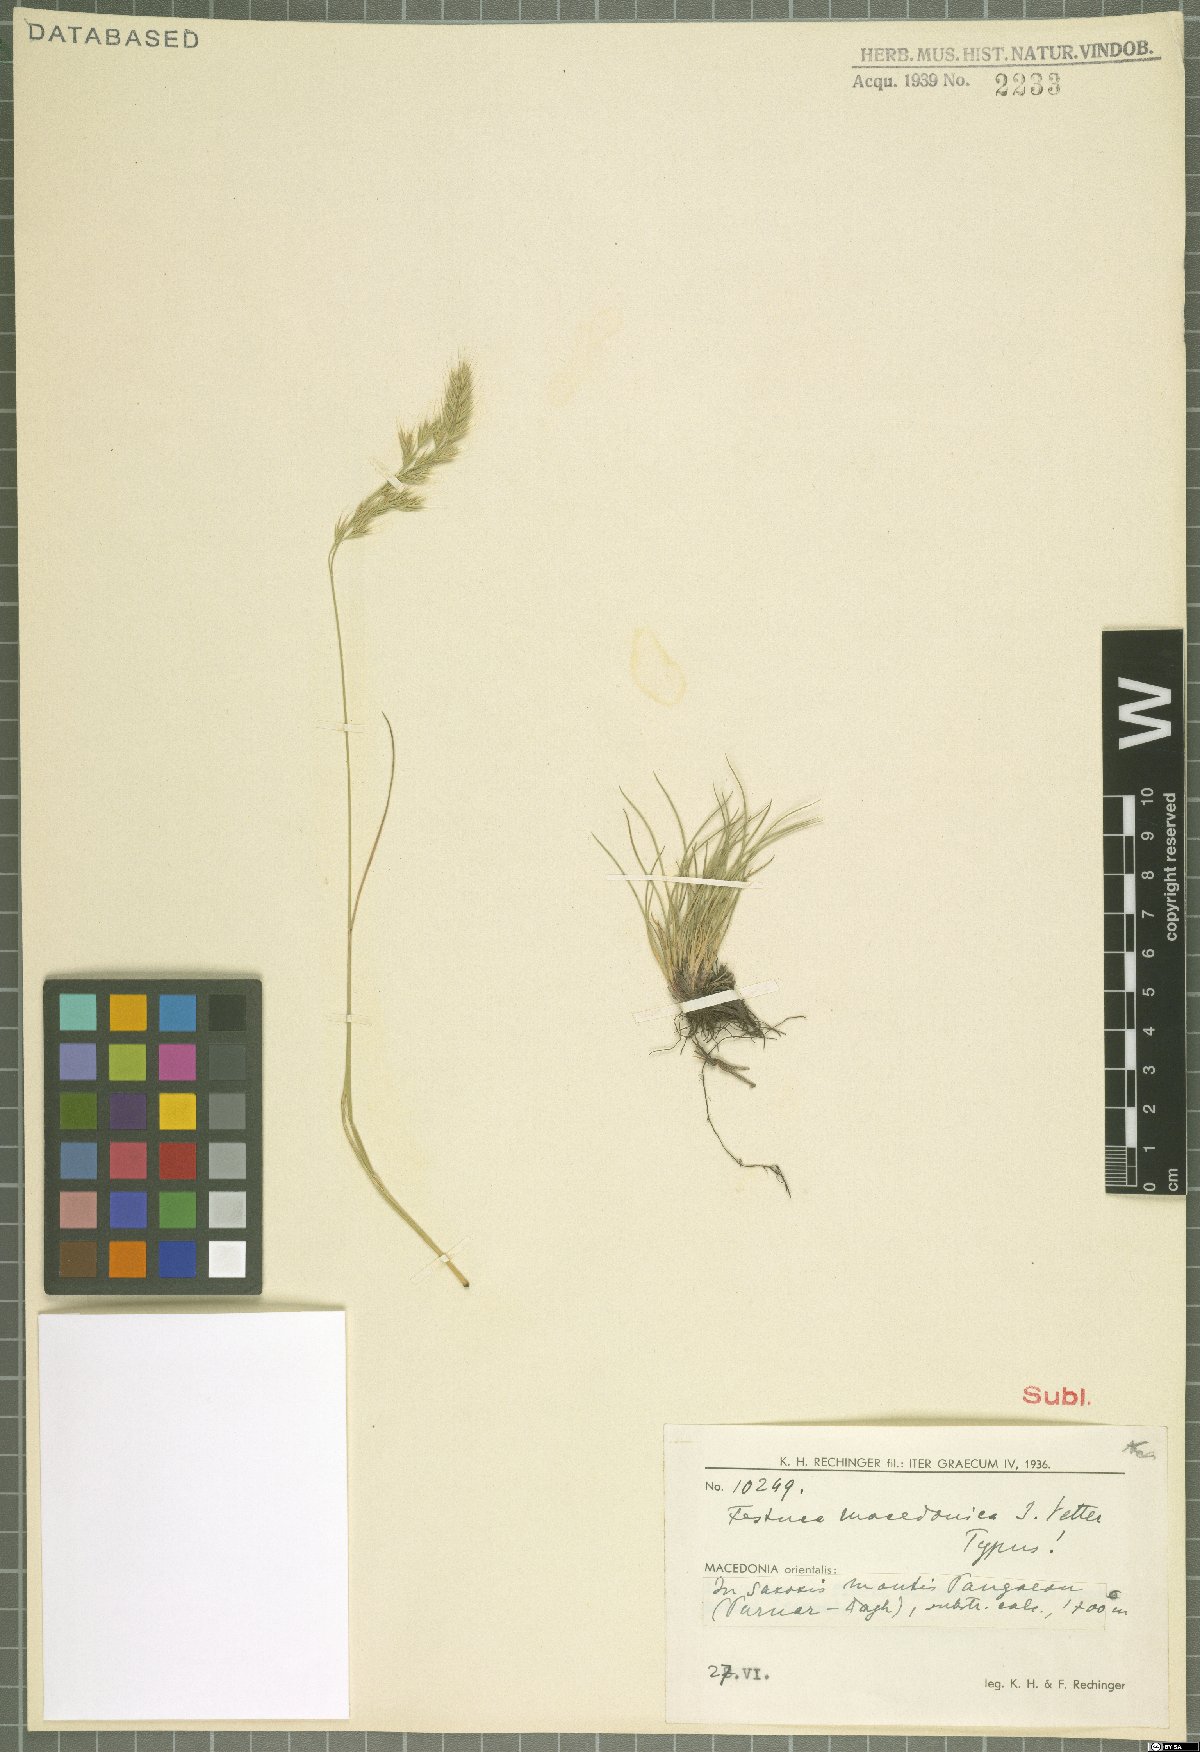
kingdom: Plantae
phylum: Tracheophyta
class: Liliopsida
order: Poales
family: Poaceae
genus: Festuca
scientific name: Festuca macedonica
